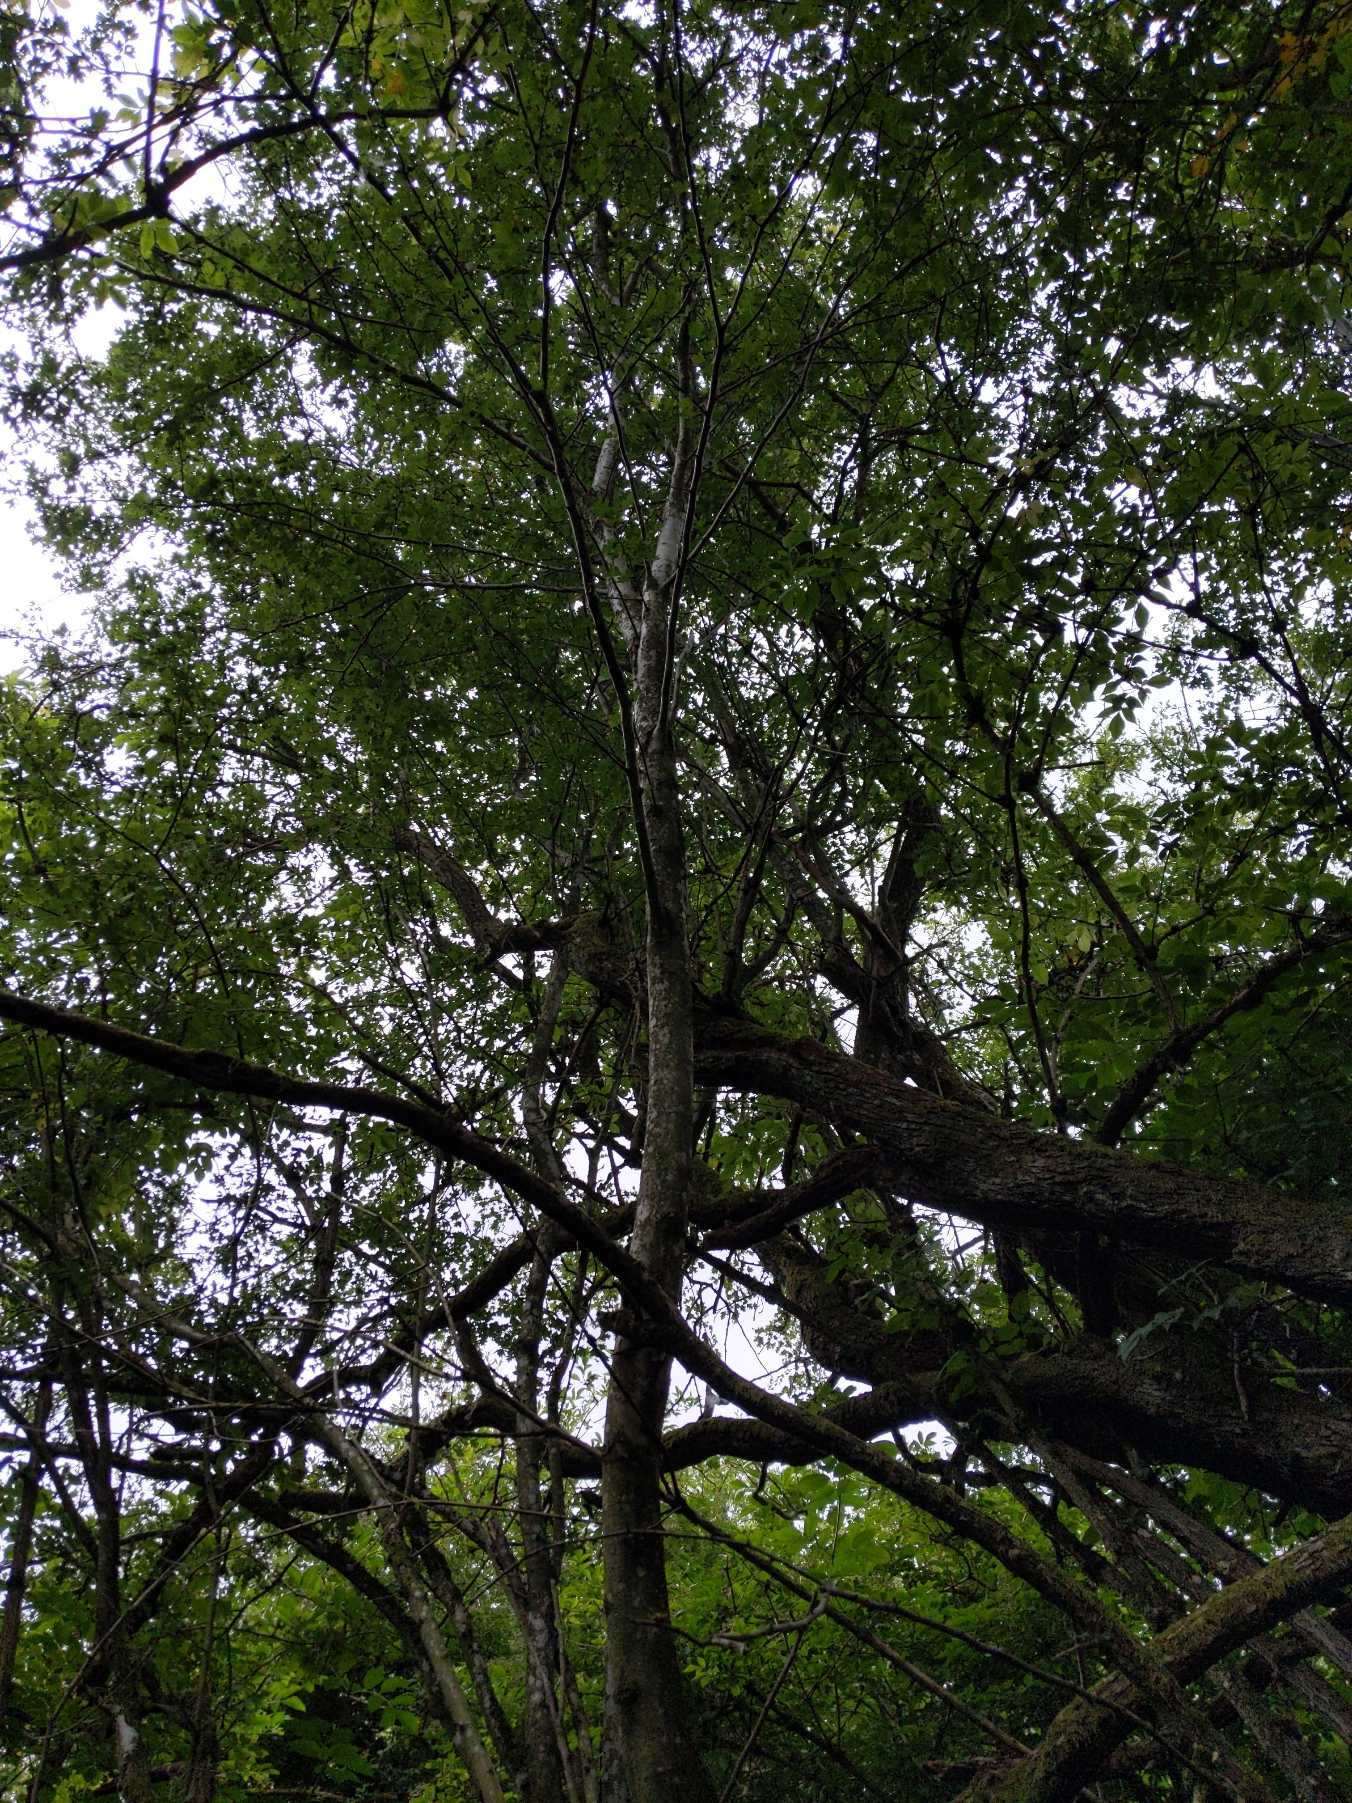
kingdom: Plantae
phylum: Tracheophyta
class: Magnoliopsida
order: Rosales
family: Rosaceae
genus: Crataegus
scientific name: Crataegus monogyna
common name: Engriflet hvidtjørn
